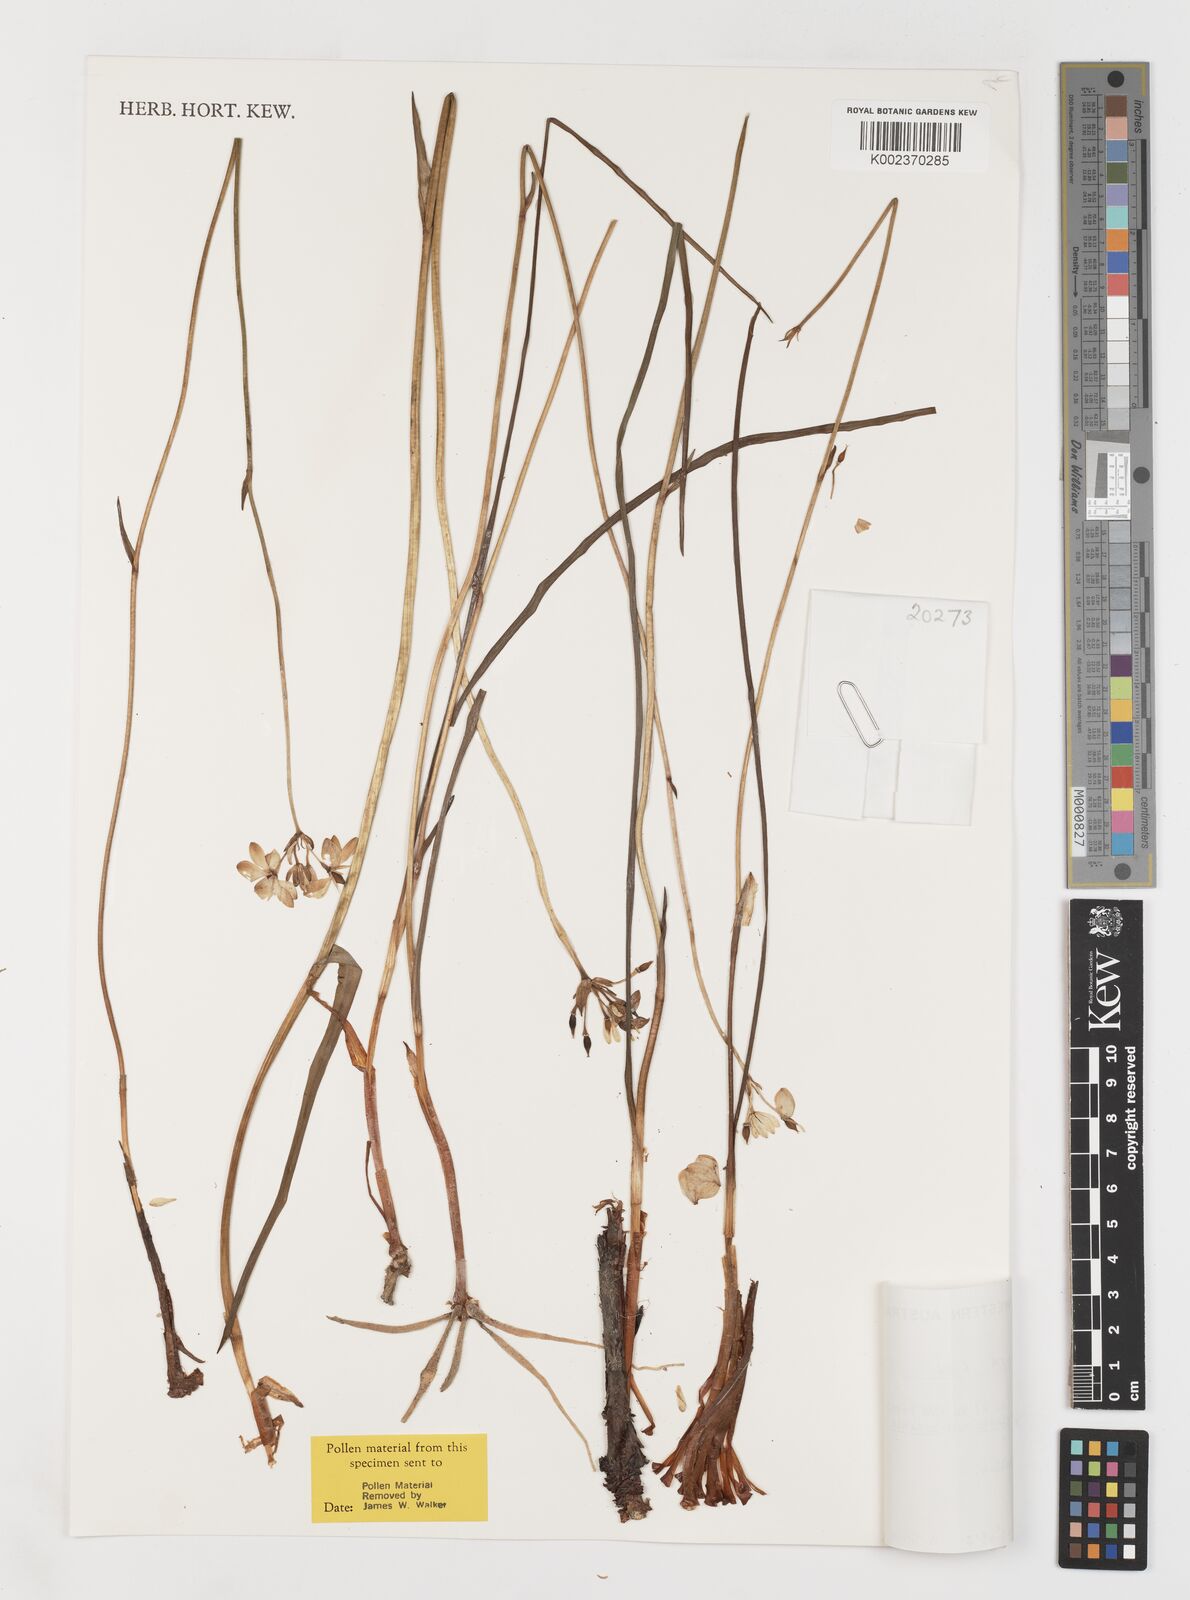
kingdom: Plantae
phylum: Tracheophyta
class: Liliopsida
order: Liliales
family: Colchicaceae
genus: Burchardia
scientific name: Burchardia umbellata
